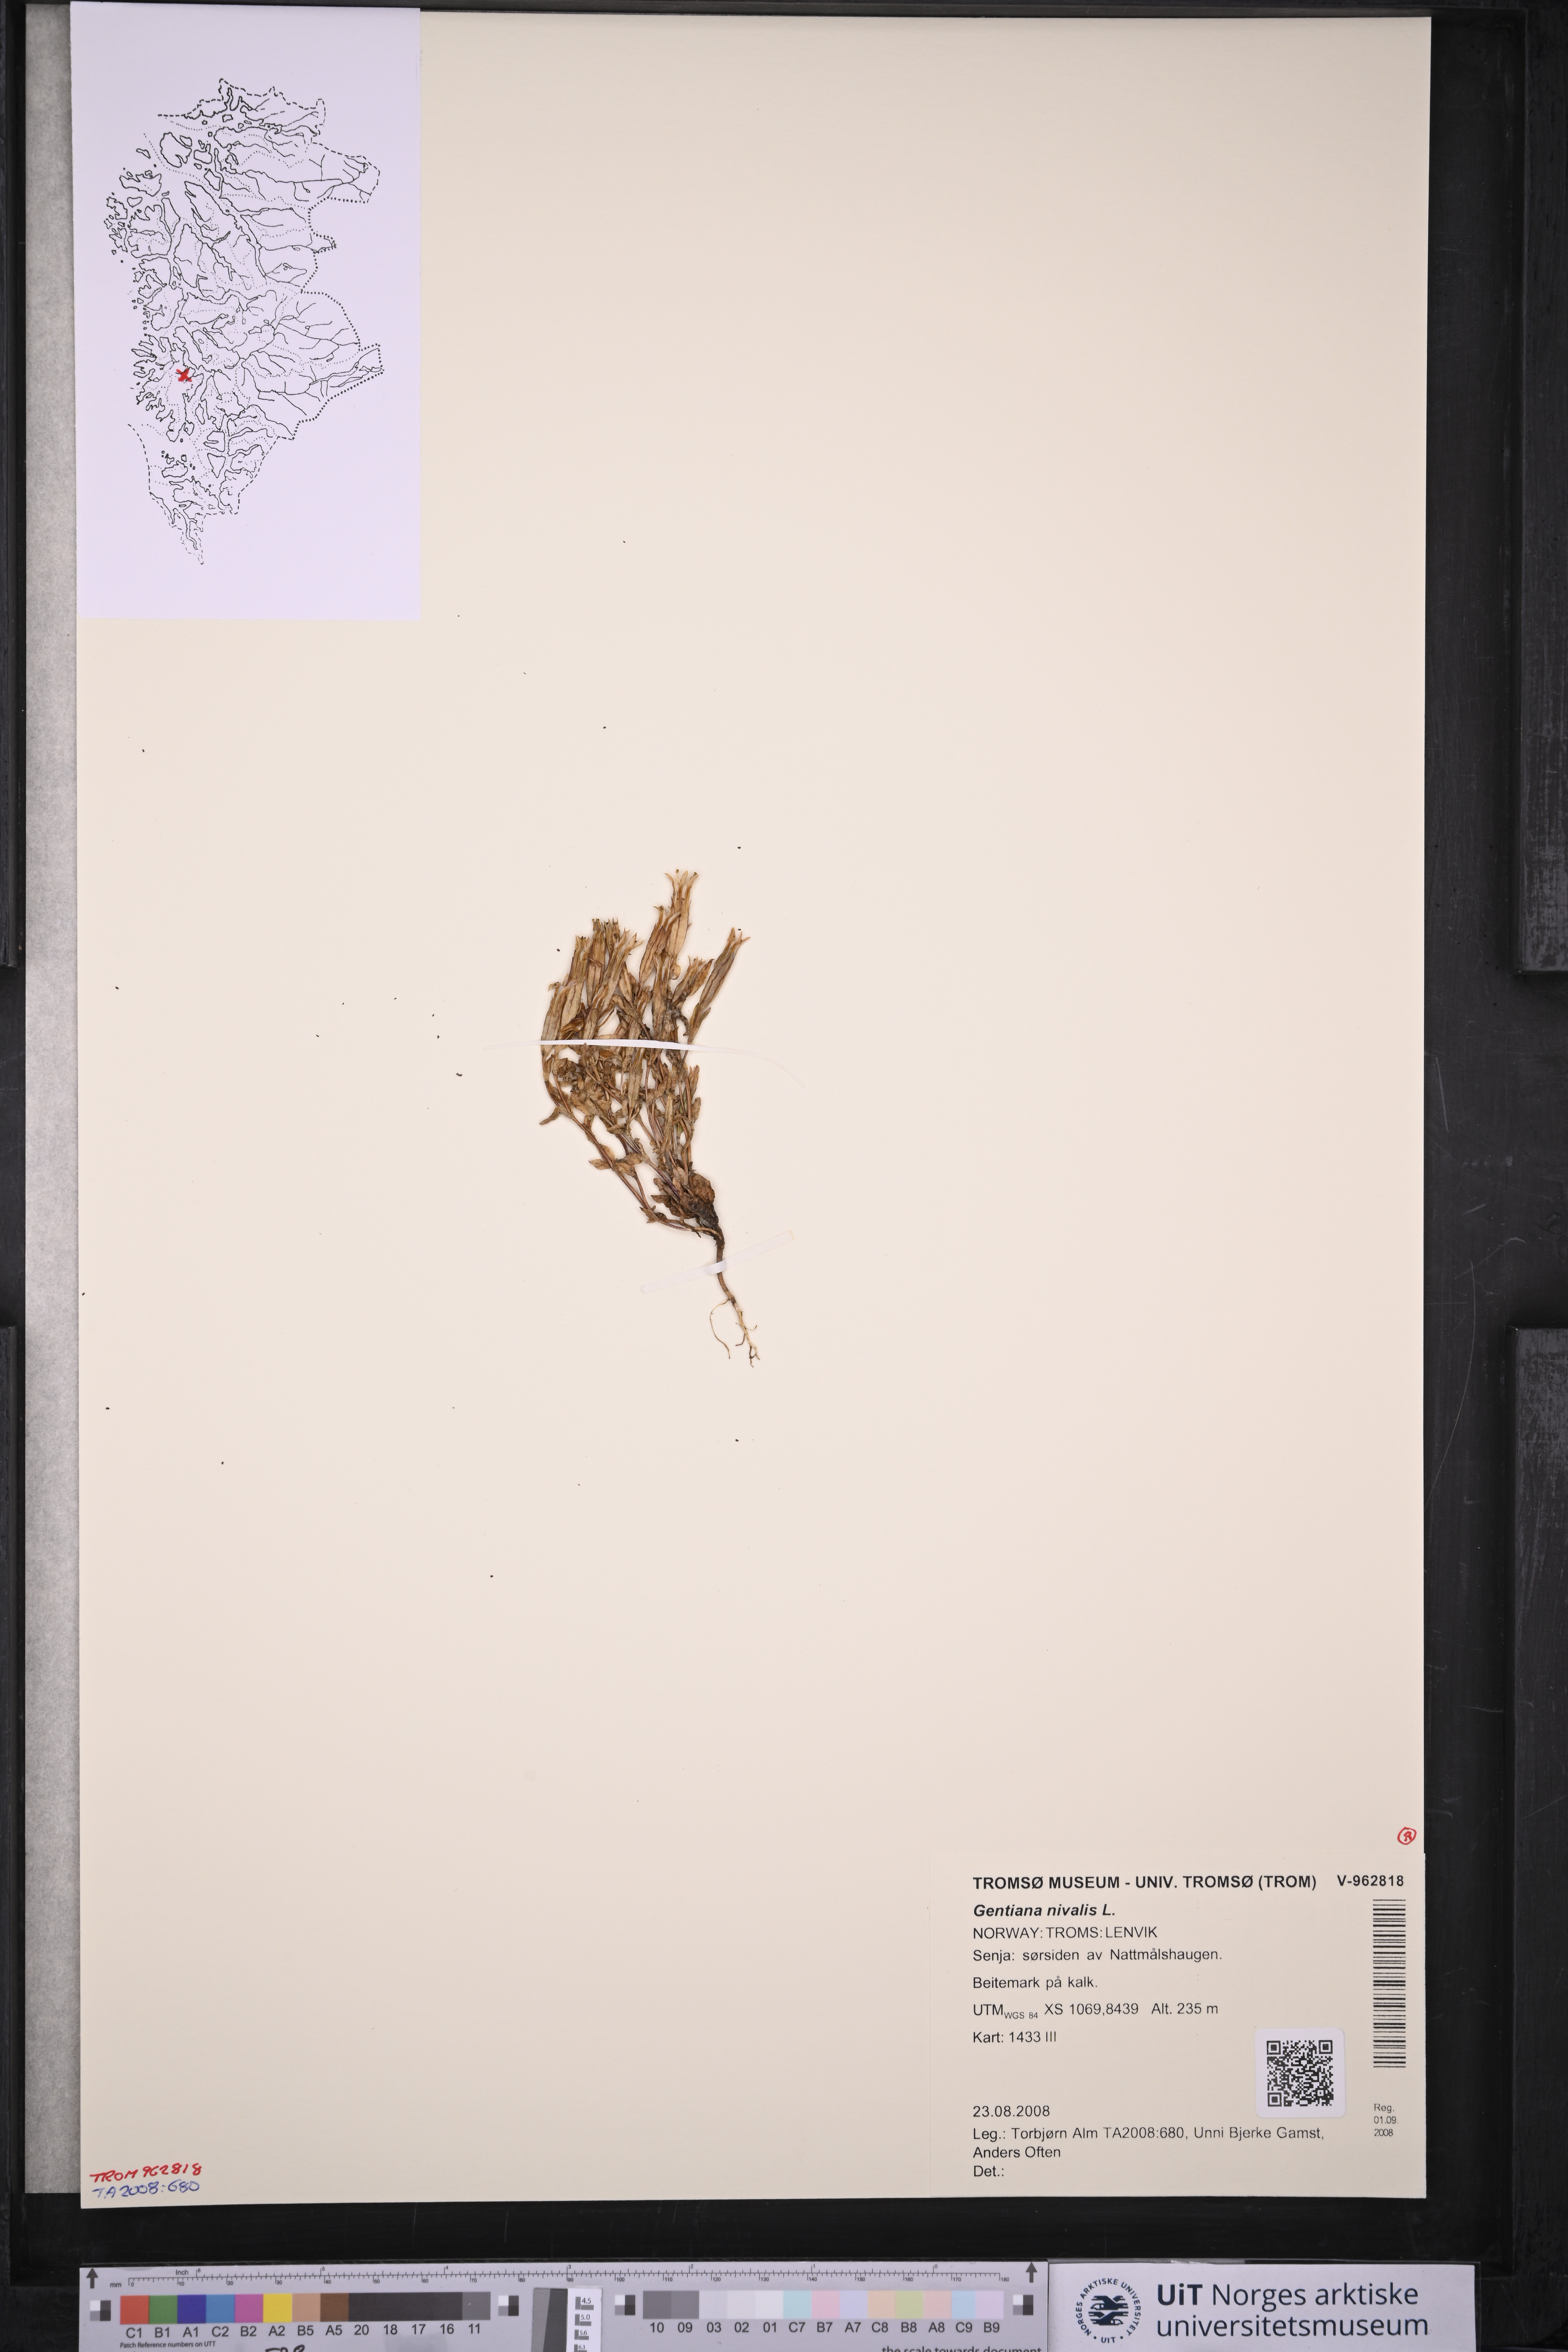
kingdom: Plantae
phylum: Tracheophyta
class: Magnoliopsida
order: Gentianales
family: Gentianaceae
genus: Gentiana
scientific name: Gentiana nivalis
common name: Alpine gentian
